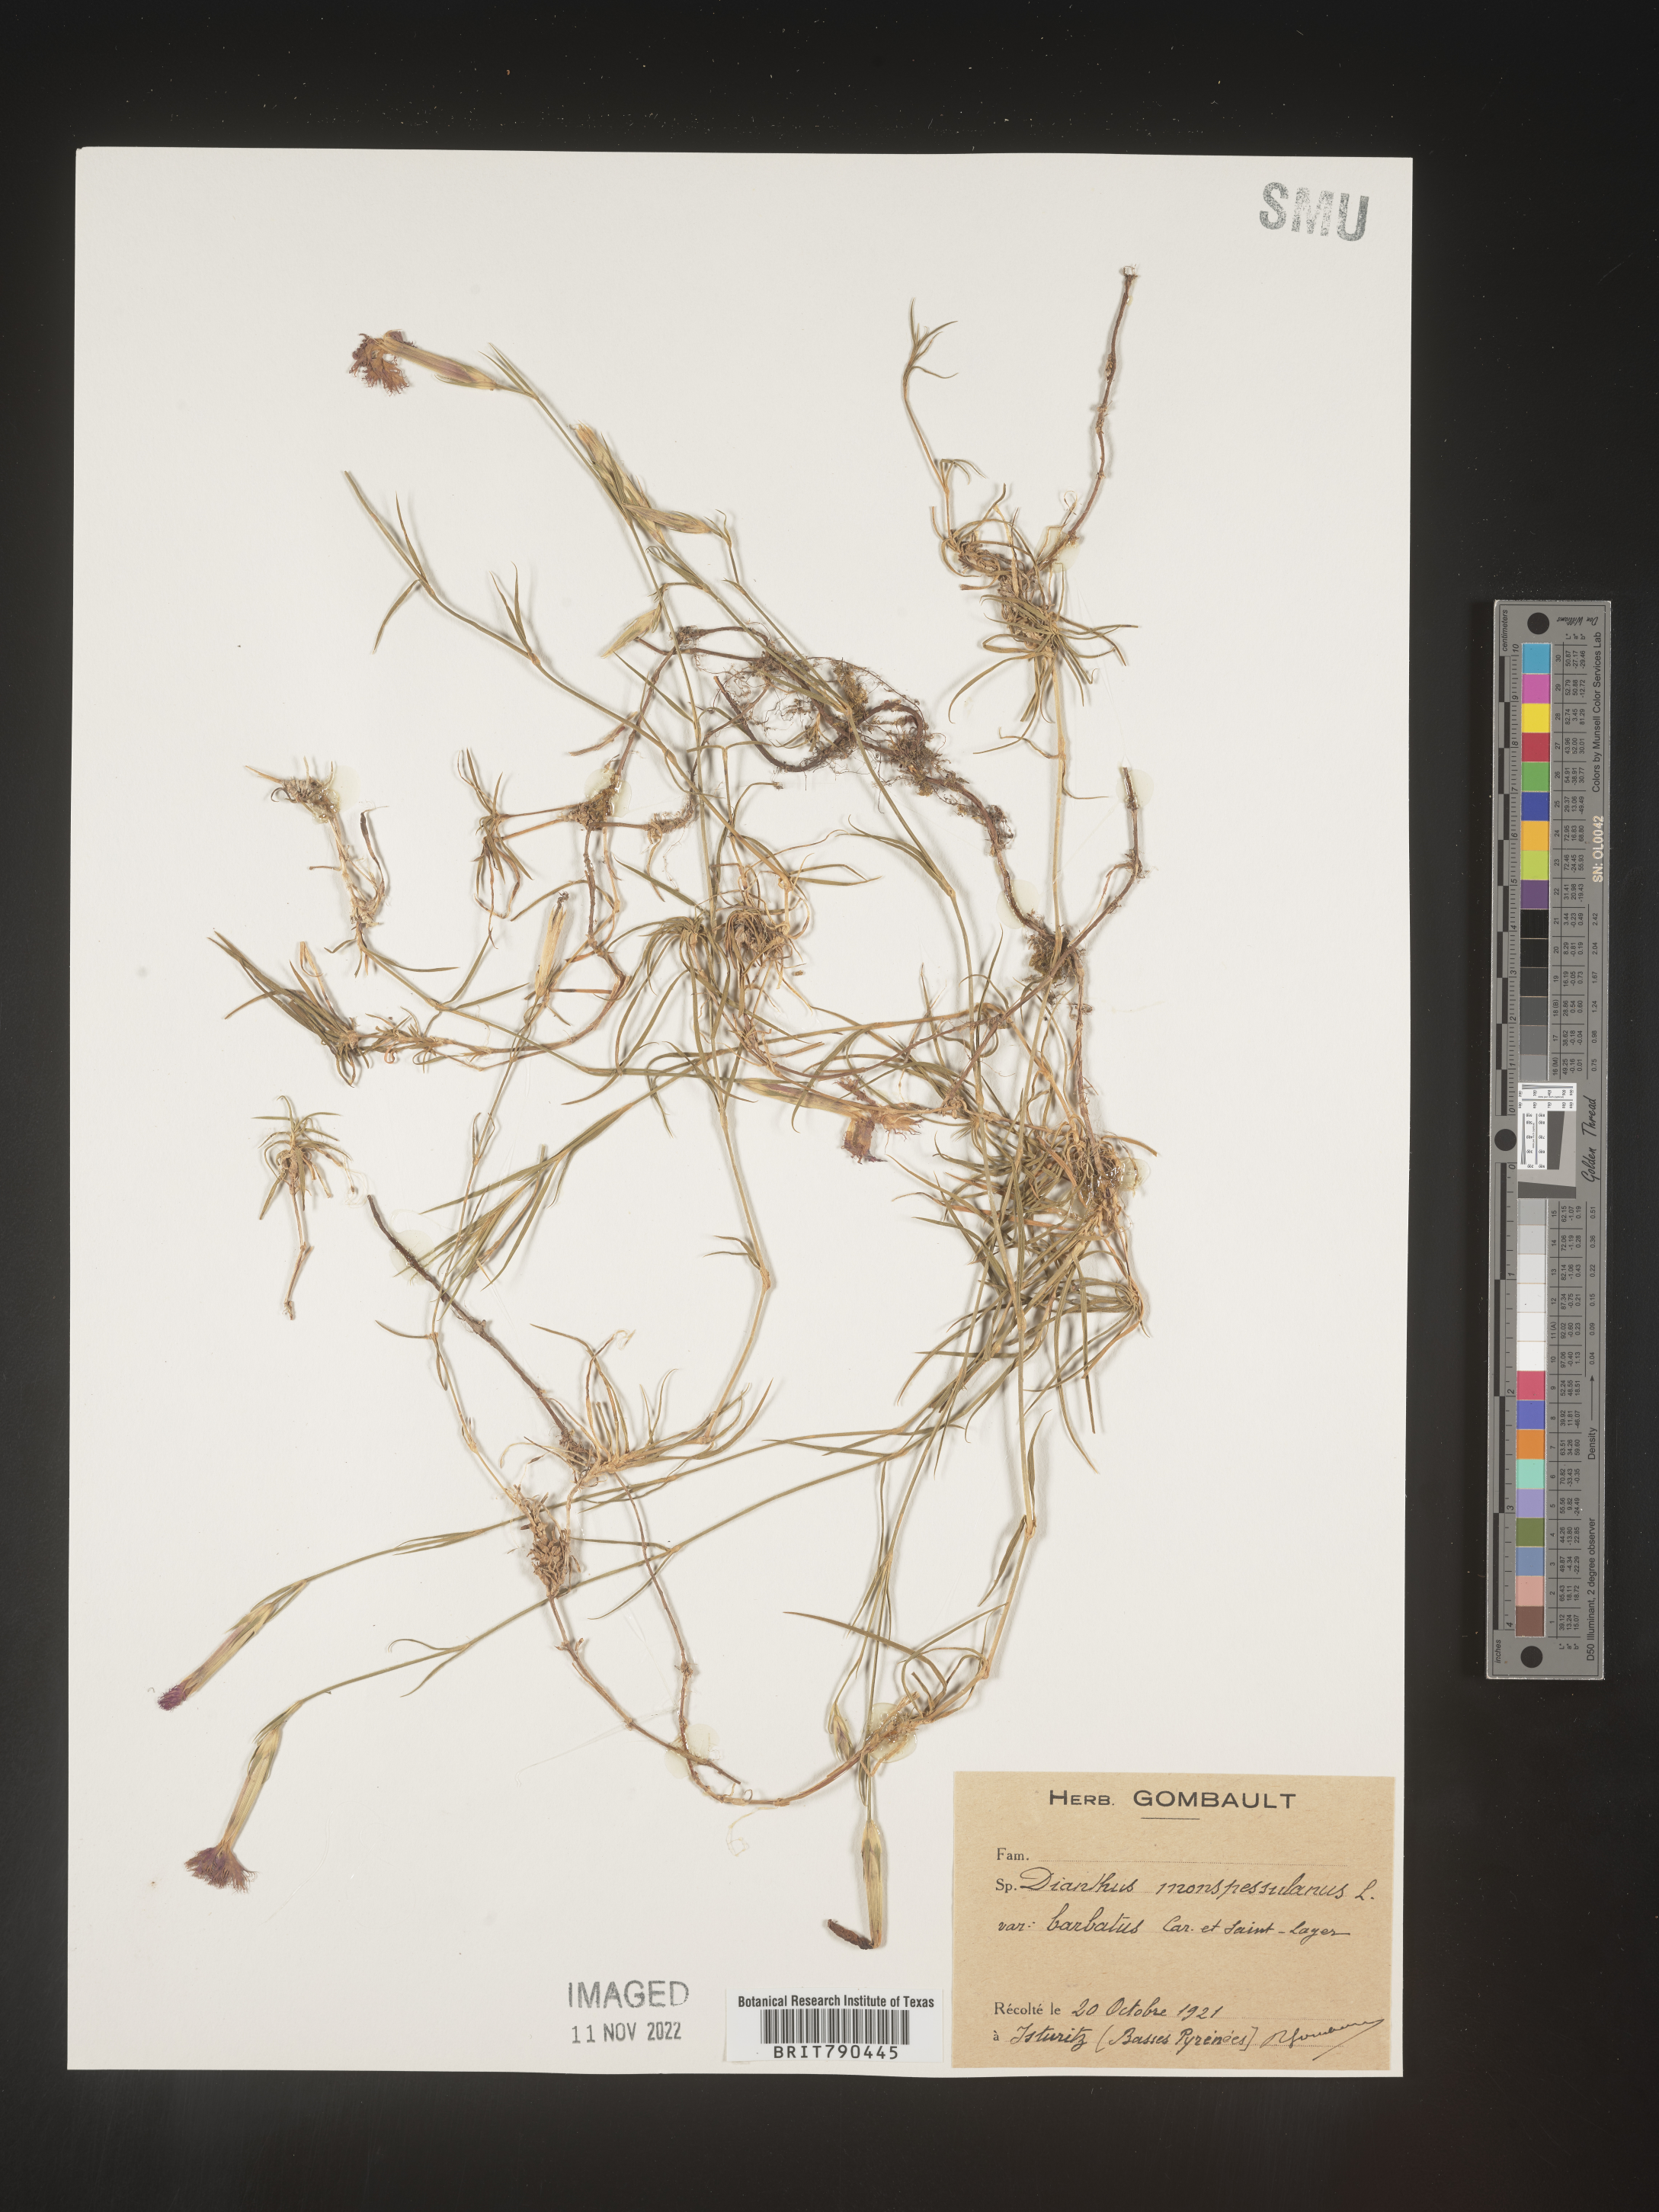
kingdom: Plantae
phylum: Tracheophyta
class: Magnoliopsida
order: Caryophyllales
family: Caryophyllaceae
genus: Dianthus
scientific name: Dianthus
